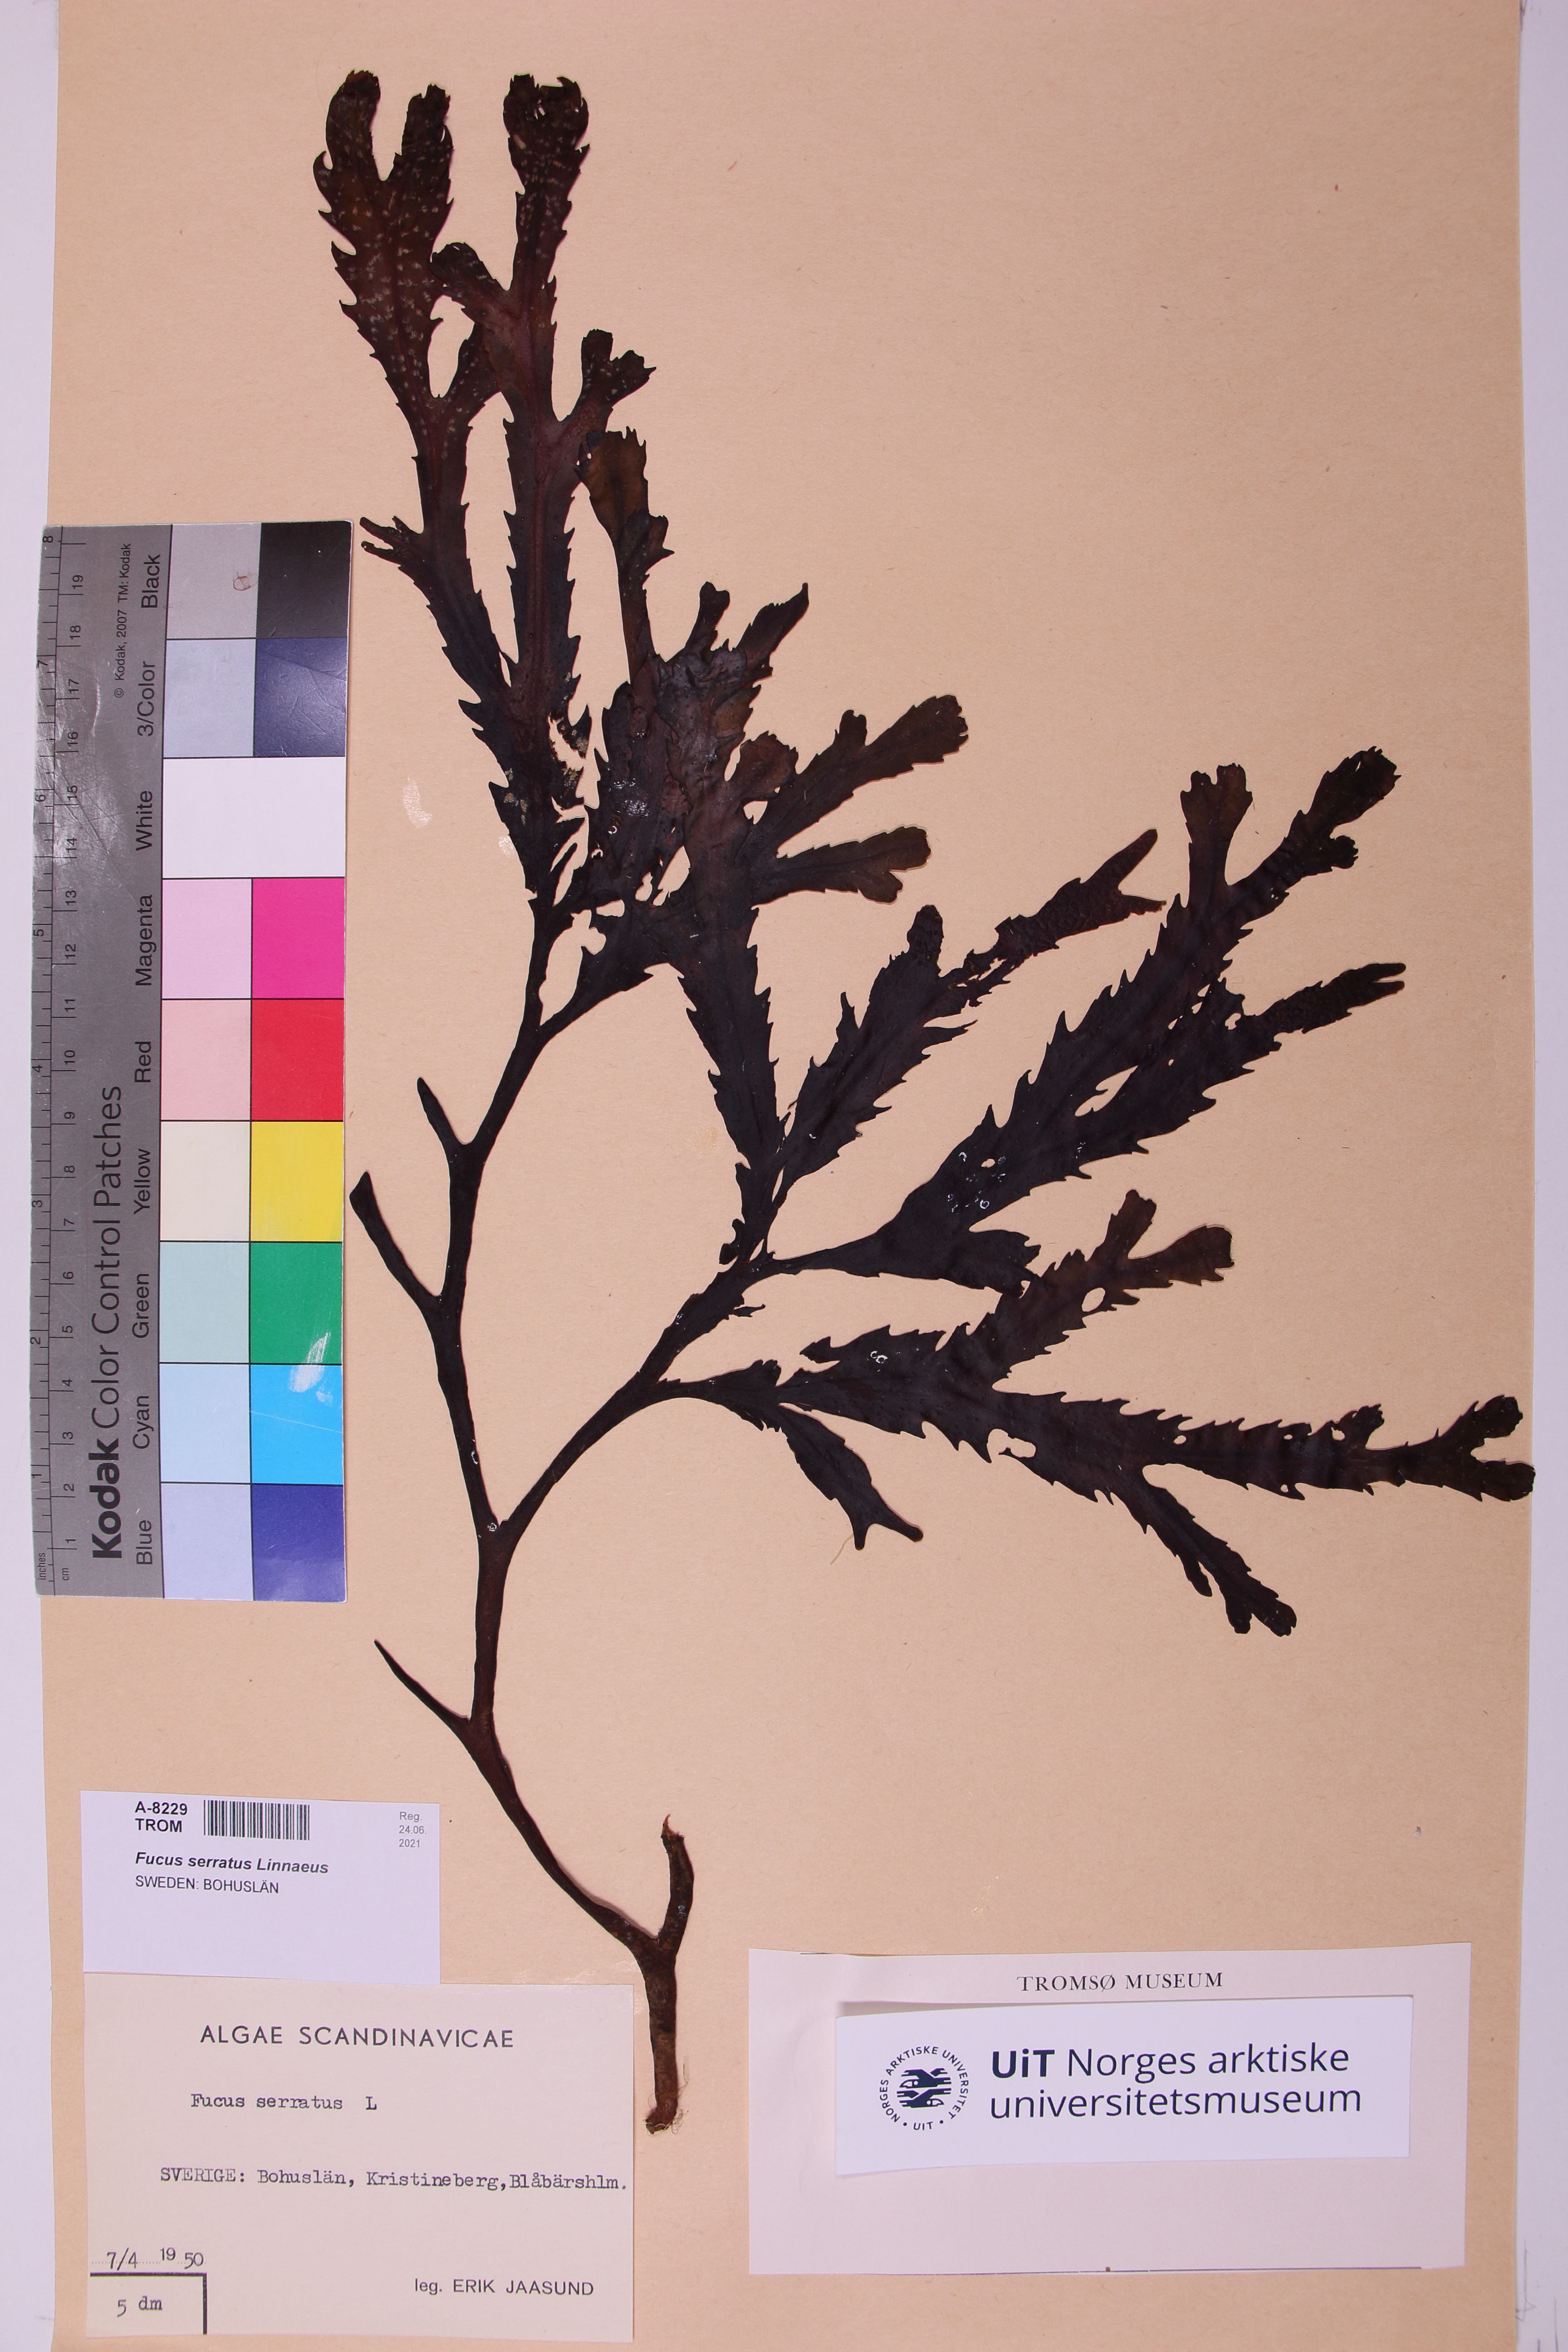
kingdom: Chromista
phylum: Ochrophyta
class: Phaeophyceae
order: Fucales
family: Fucaceae
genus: Fucus
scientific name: Fucus serratus
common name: Toothed wrack
